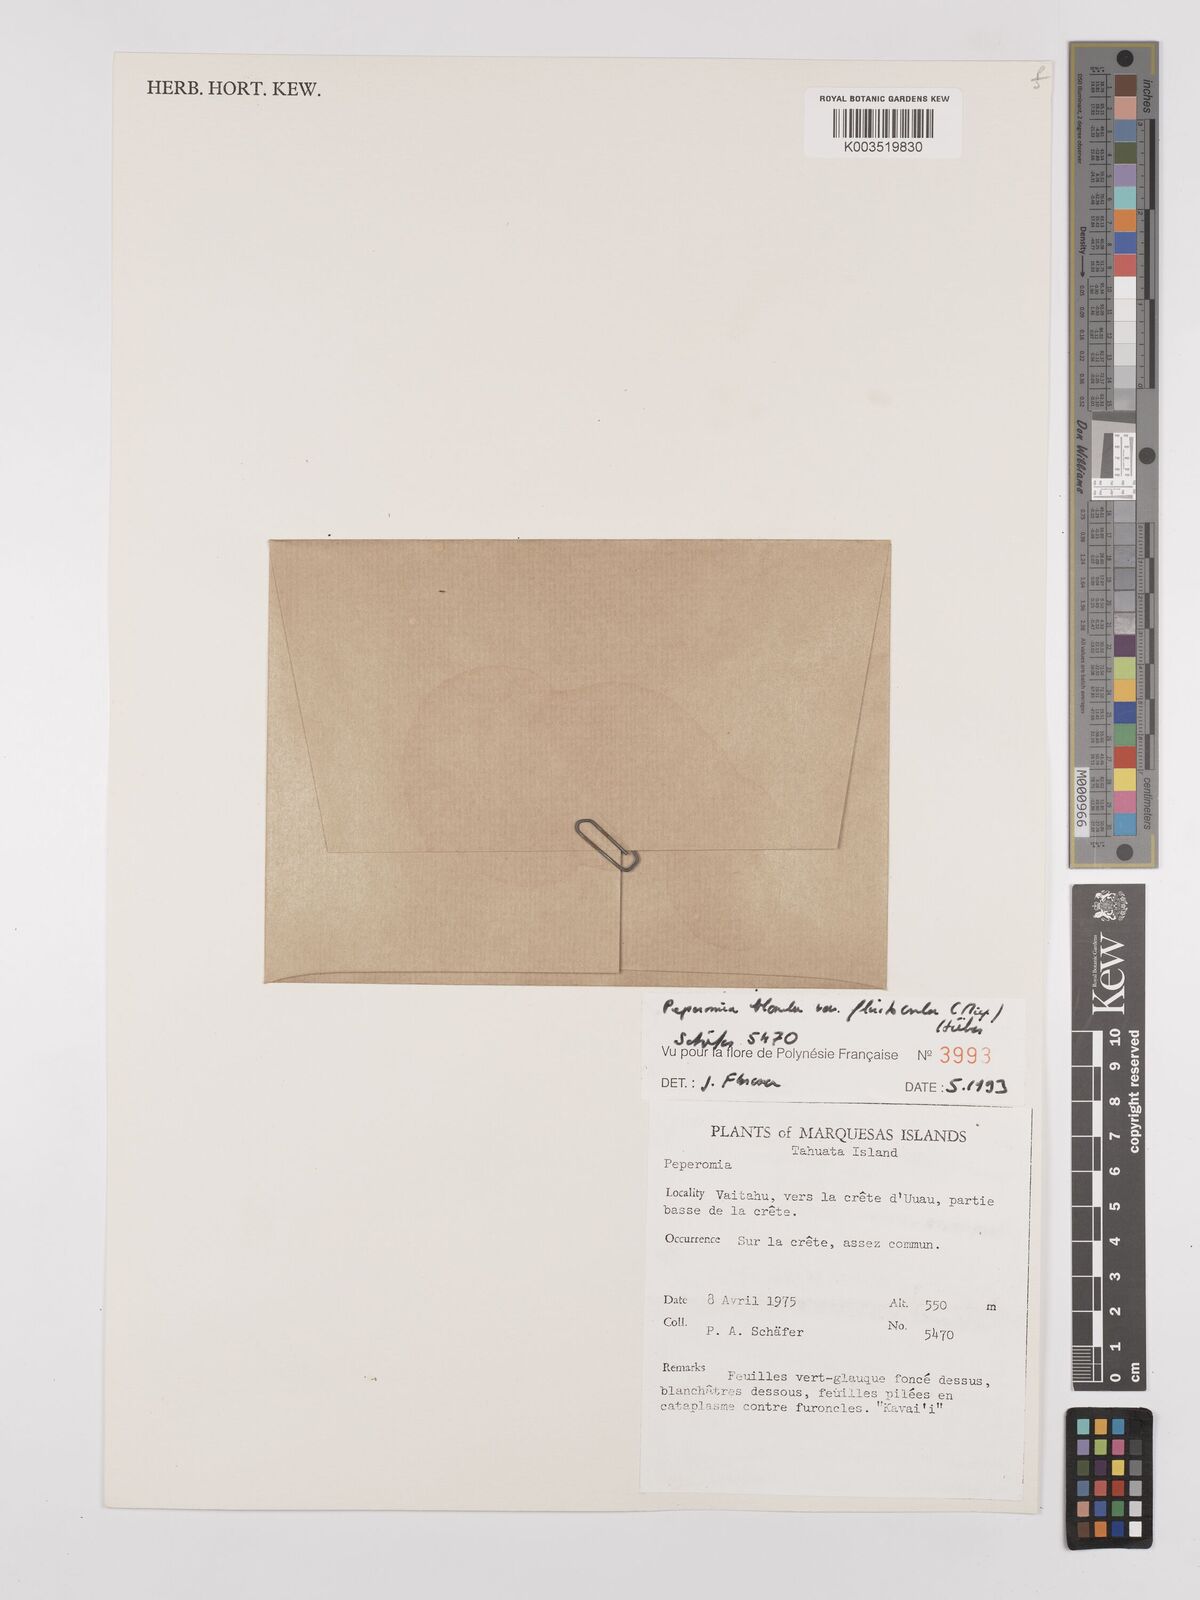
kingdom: Plantae
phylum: Tracheophyta
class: Magnoliopsida
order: Piperales
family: Piperaceae
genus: Peperomia
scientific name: Peperomia leptostachya
